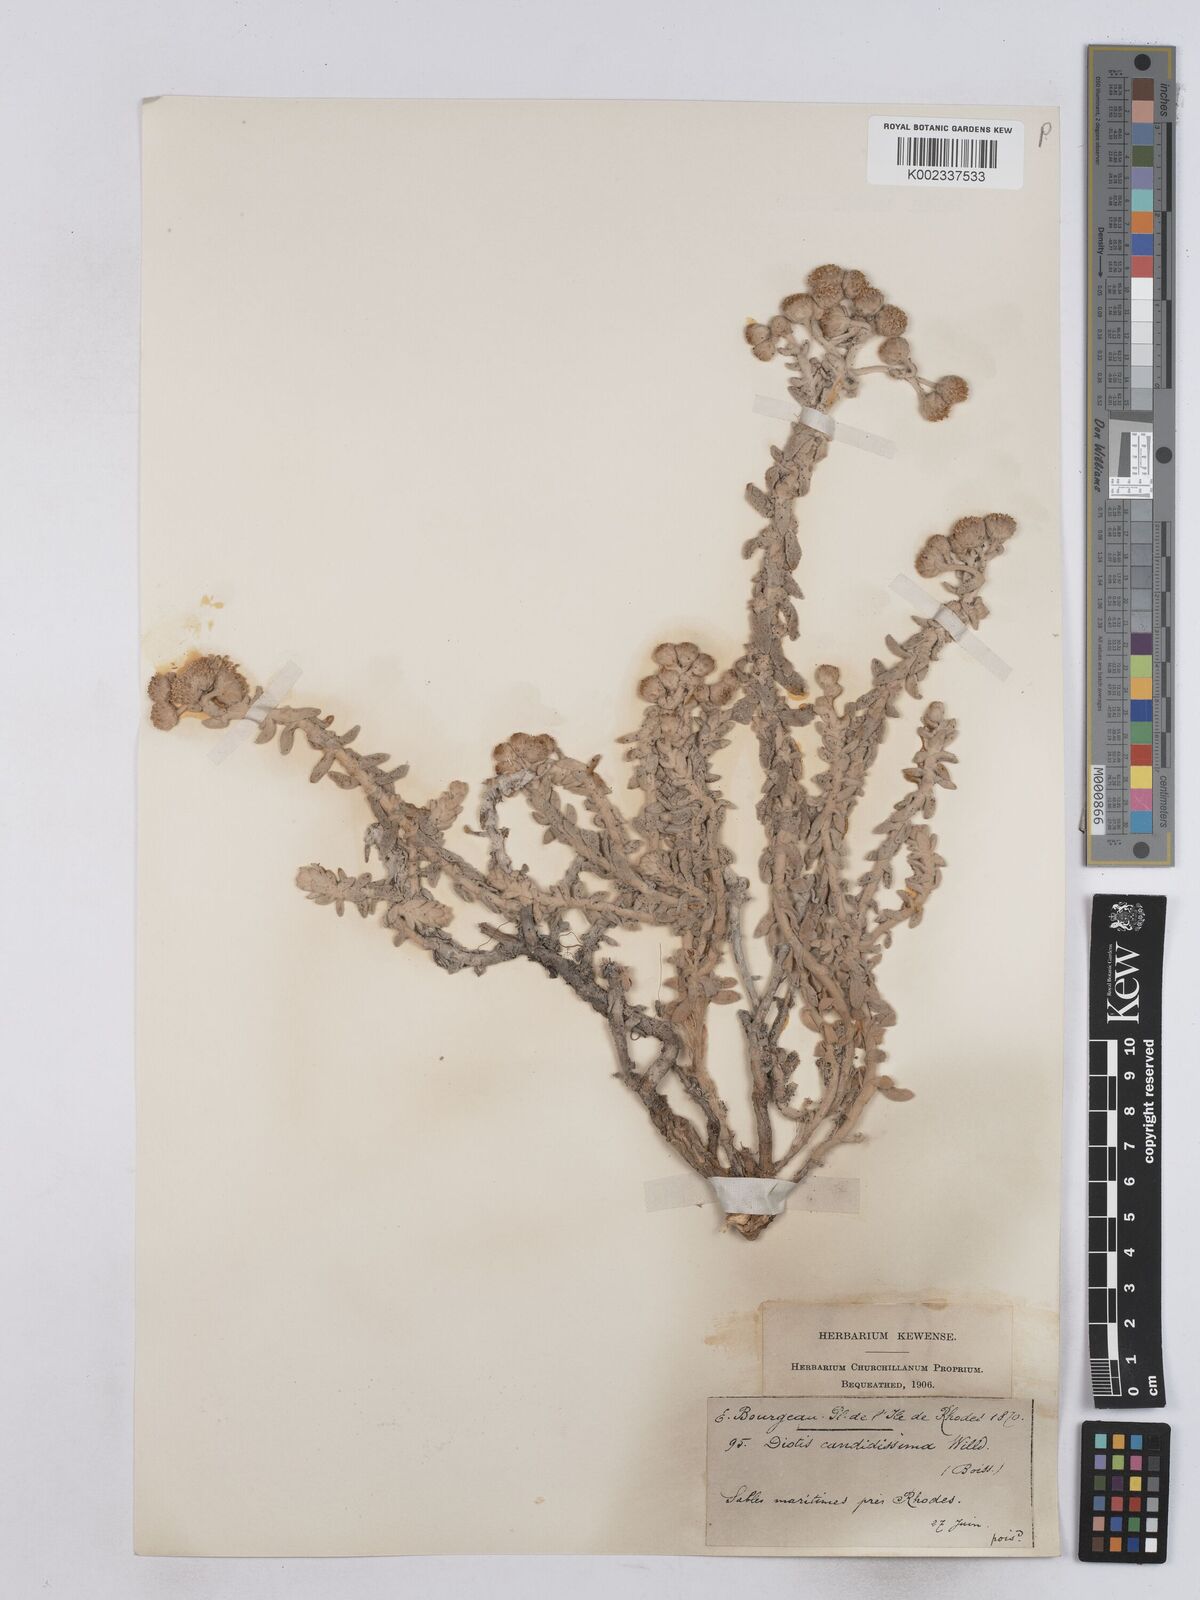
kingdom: Plantae
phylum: Tracheophyta
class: Magnoliopsida
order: Asterales
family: Asteraceae
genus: Achillea
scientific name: Achillea maritima
